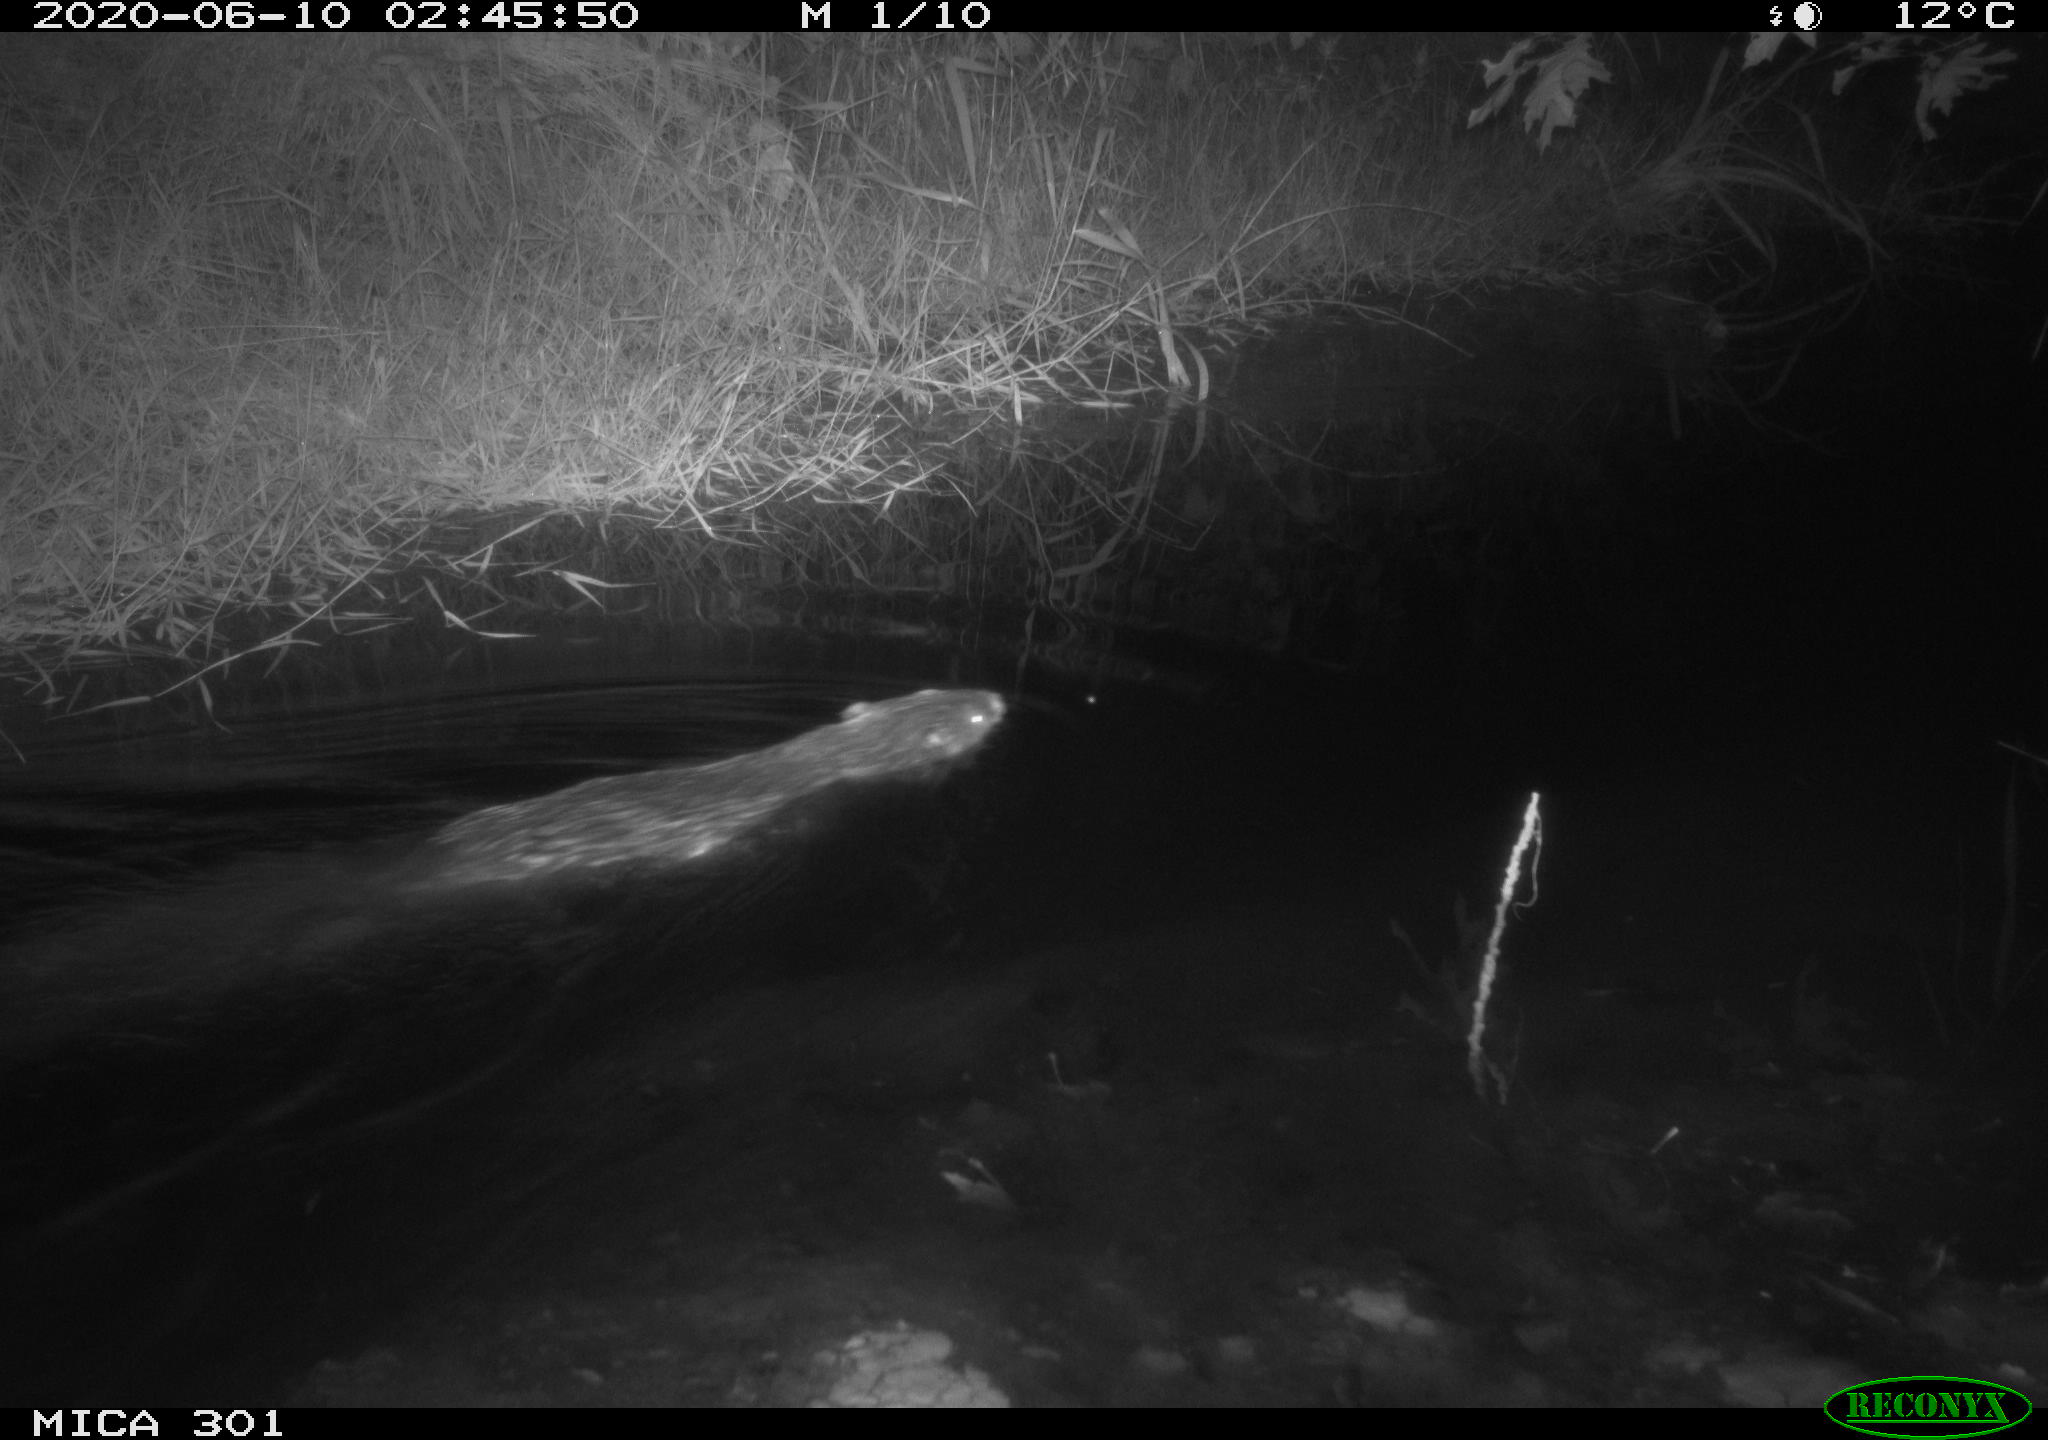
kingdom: Animalia
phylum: Chordata
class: Mammalia
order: Rodentia
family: Castoridae
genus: Castor
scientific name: Castor fiber
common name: Eurasian beaver
